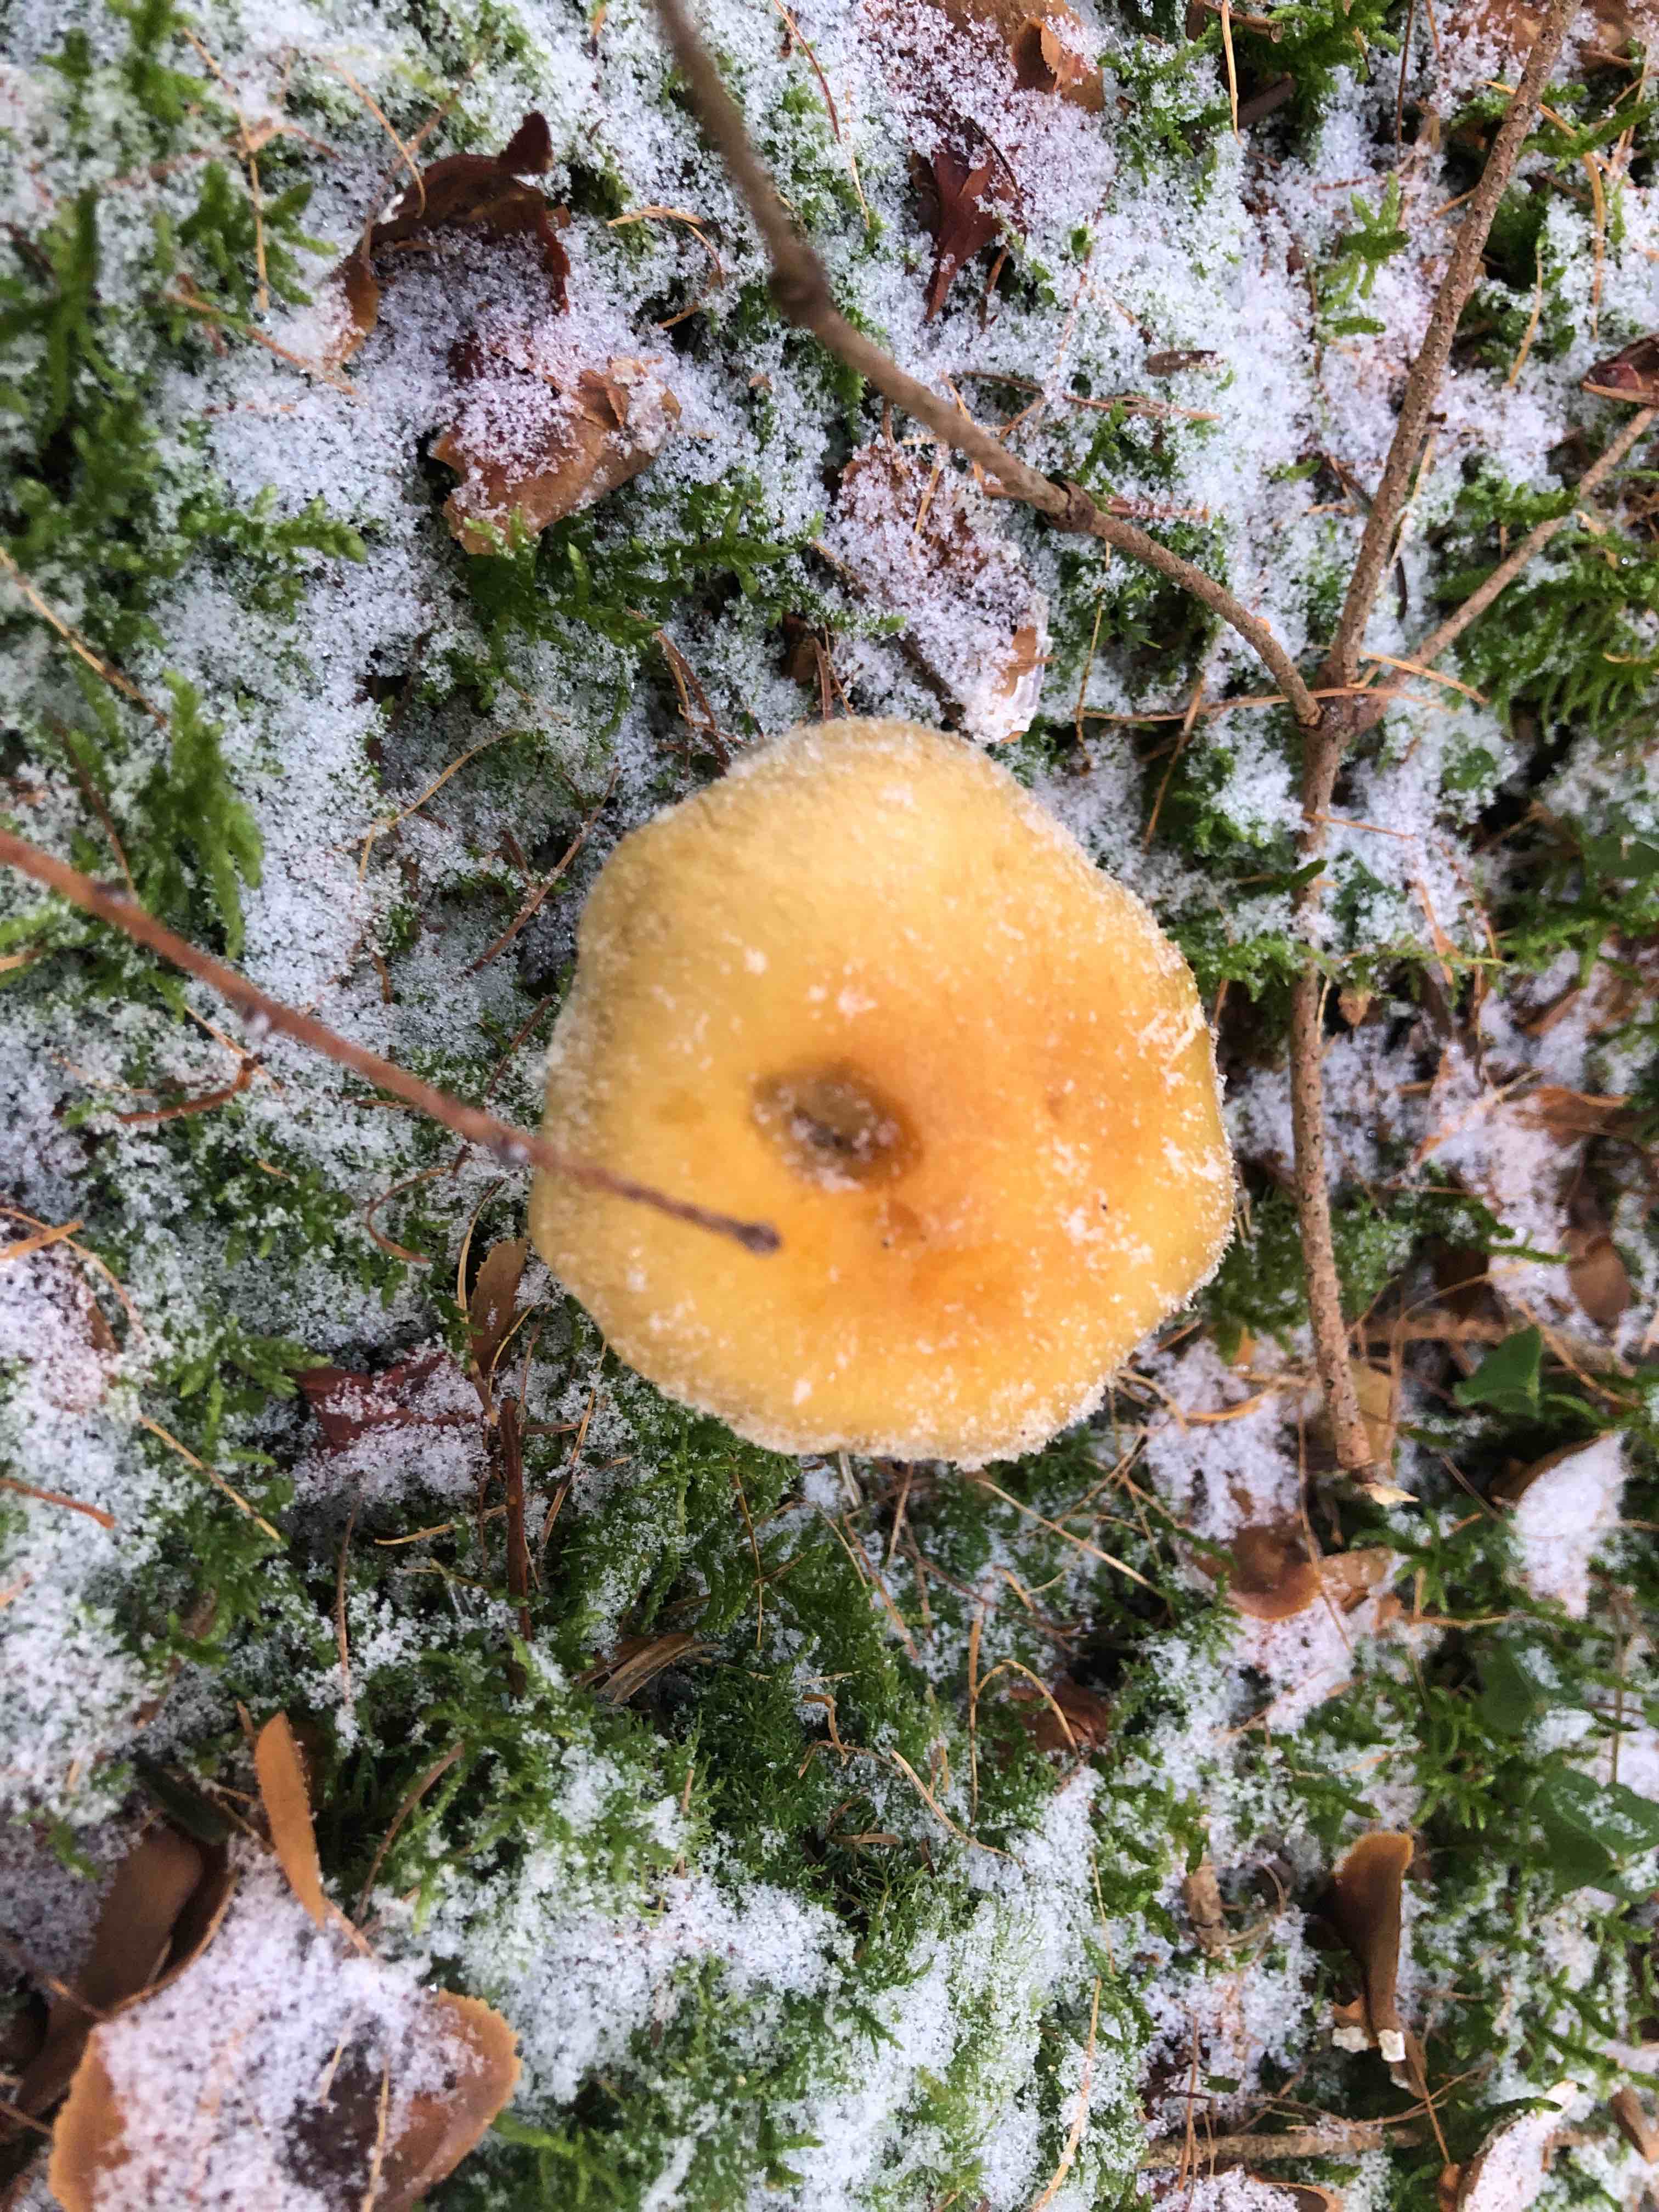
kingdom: Fungi
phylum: Basidiomycota
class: Agaricomycetes
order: Agaricales
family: Strophariaceae
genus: Hypholoma
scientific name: Hypholoma capnoides
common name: gran-svovlhat
